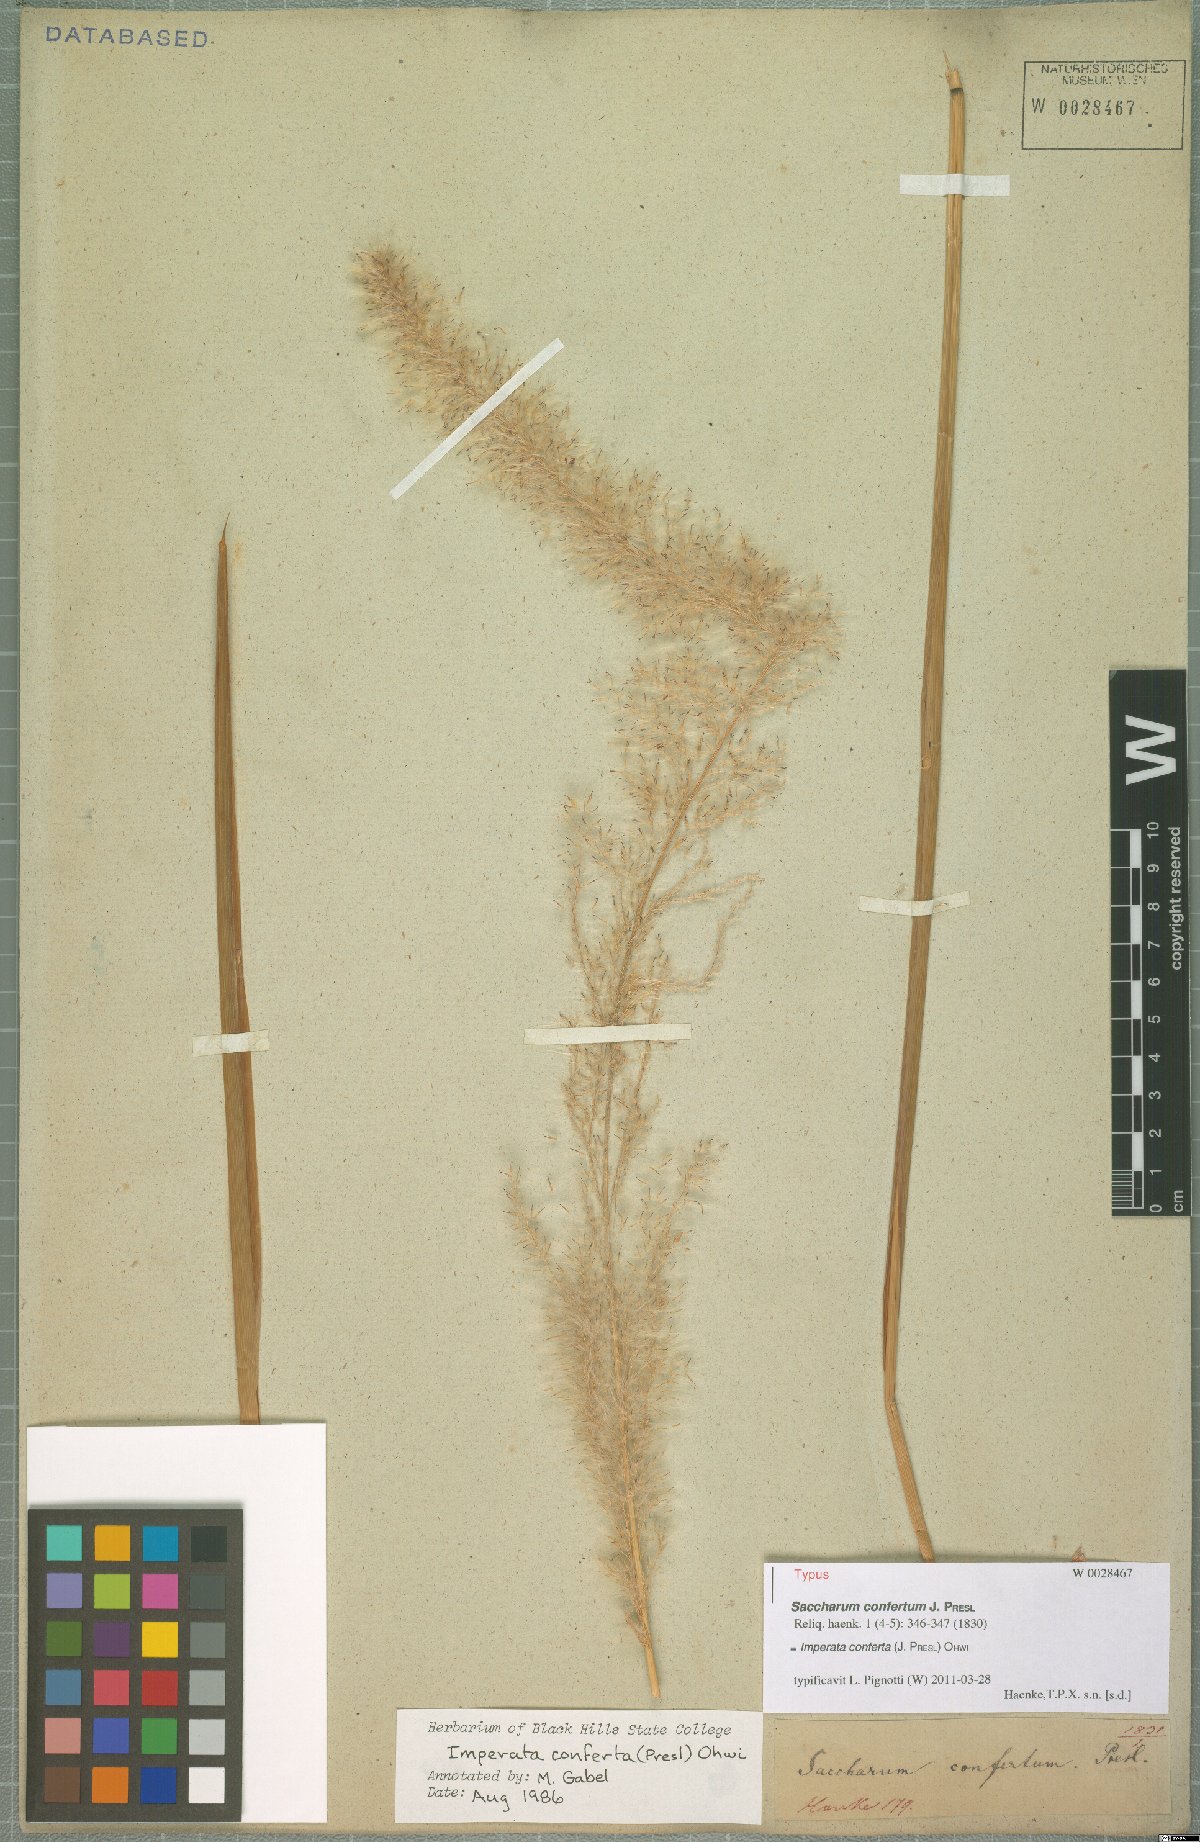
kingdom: Plantae
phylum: Tracheophyta
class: Liliopsida
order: Poales
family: Poaceae
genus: Imperata
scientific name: Imperata conferta
